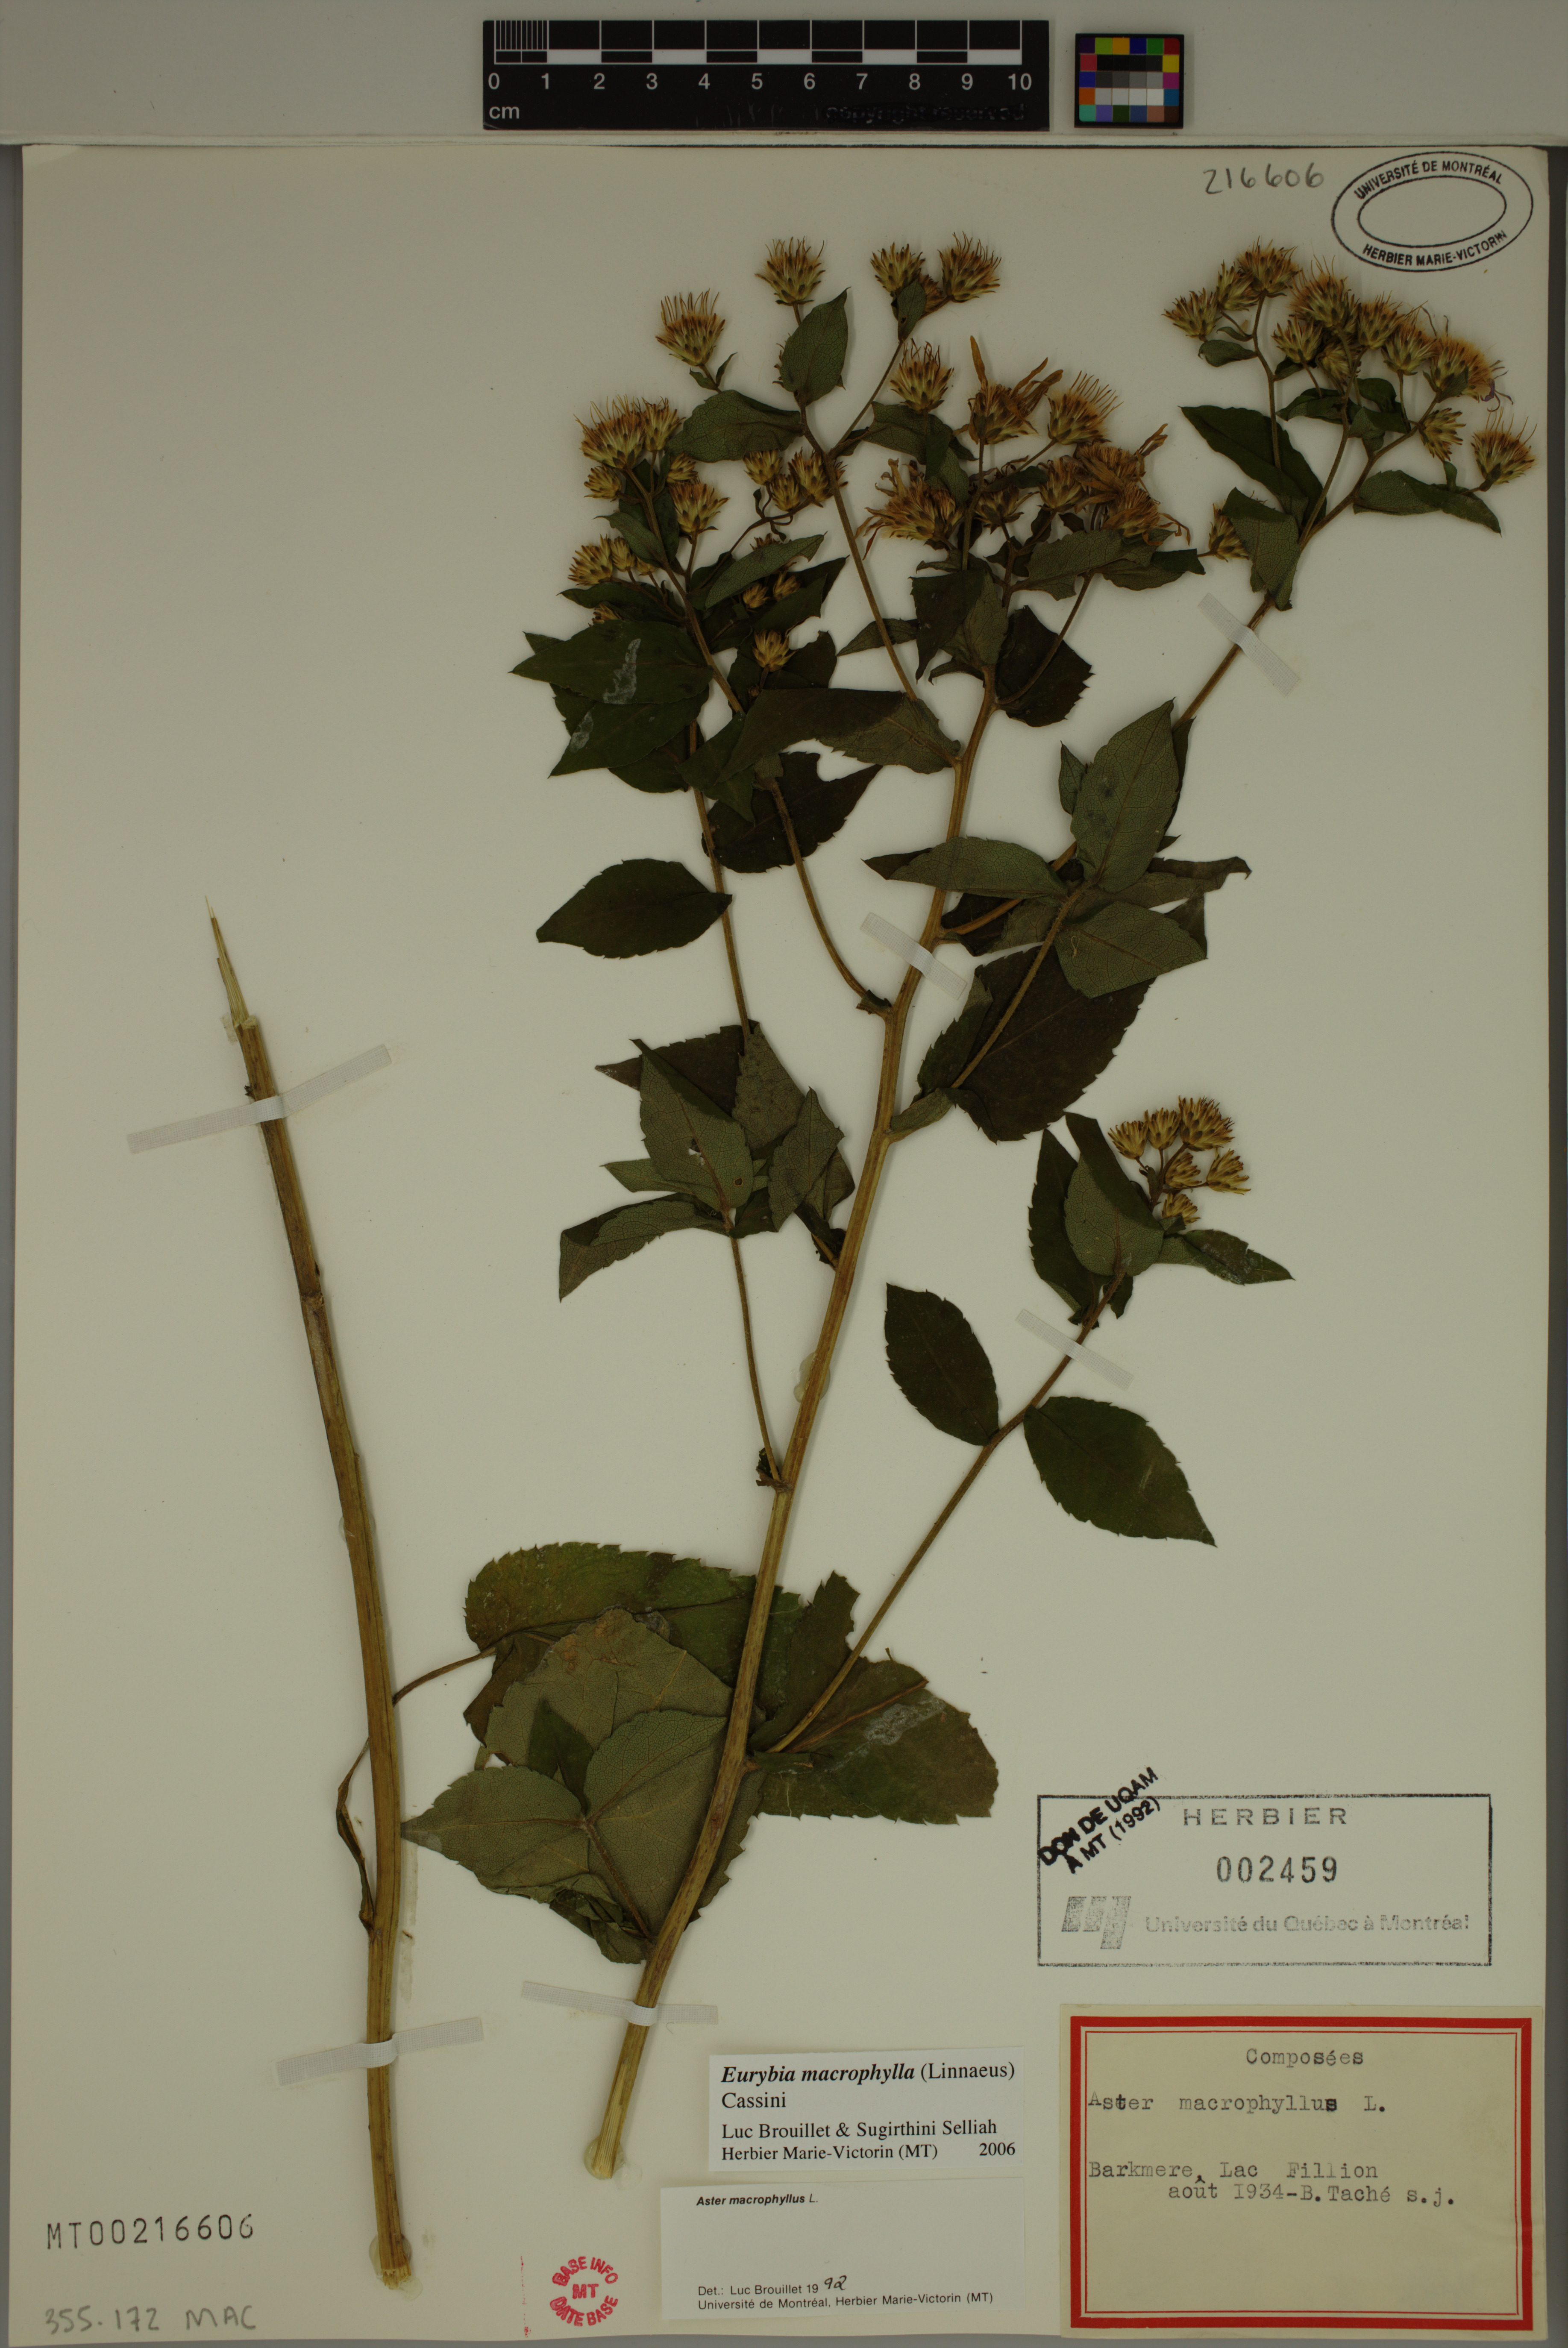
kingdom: Plantae
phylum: Tracheophyta
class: Magnoliopsida
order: Asterales
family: Asteraceae
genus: Eurybia
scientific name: Eurybia macrophylla
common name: Big-leaved aster
